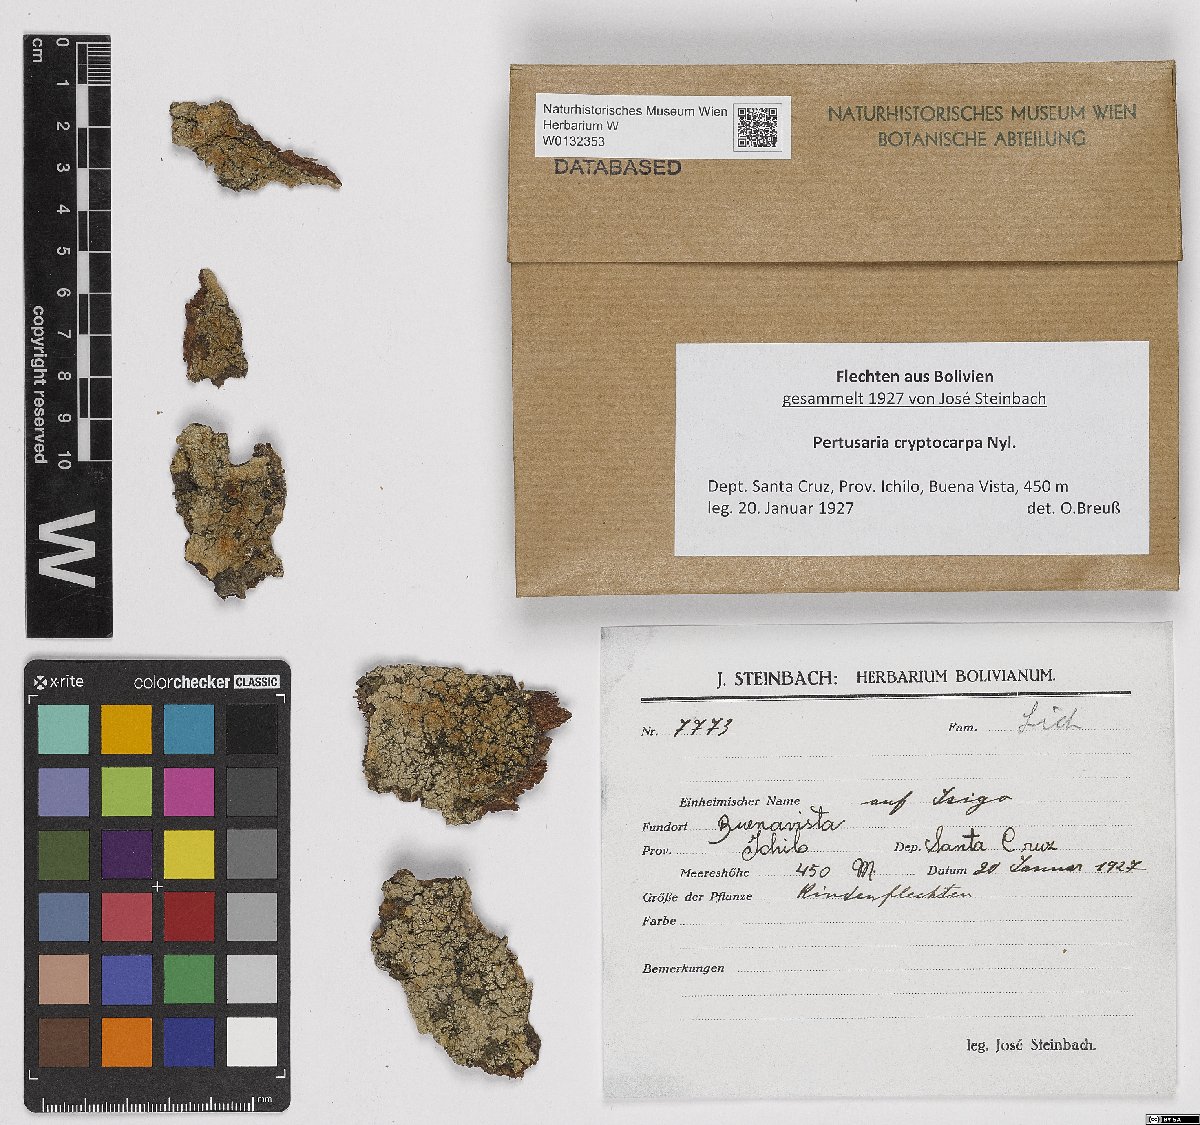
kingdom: Fungi
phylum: Ascomycota
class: Lecanoromycetes
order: Pertusariales
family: Pertusariaceae
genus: Pertusaria
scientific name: Pertusaria
